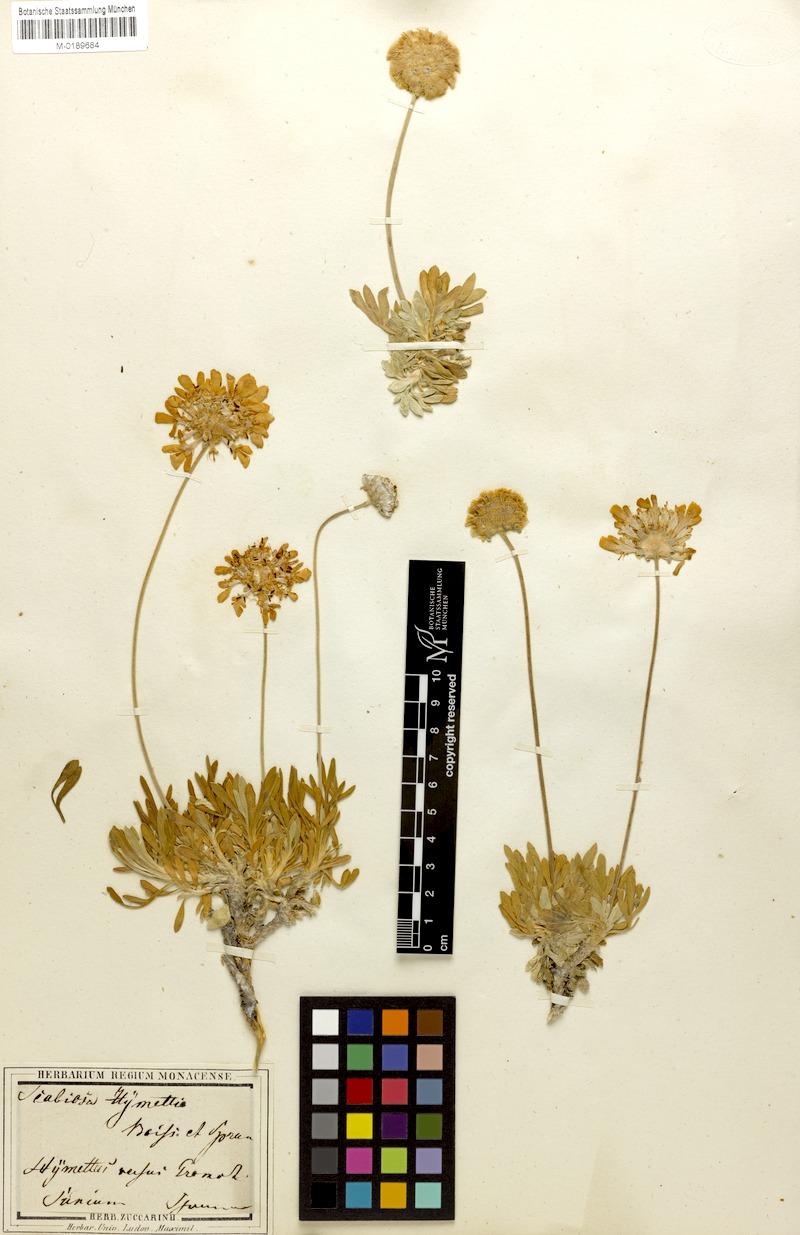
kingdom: Plantae
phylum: Tracheophyta
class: Magnoliopsida
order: Dipsacales
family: Caprifoliaceae
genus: Lomelosia
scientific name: Lomelosia hymettia
